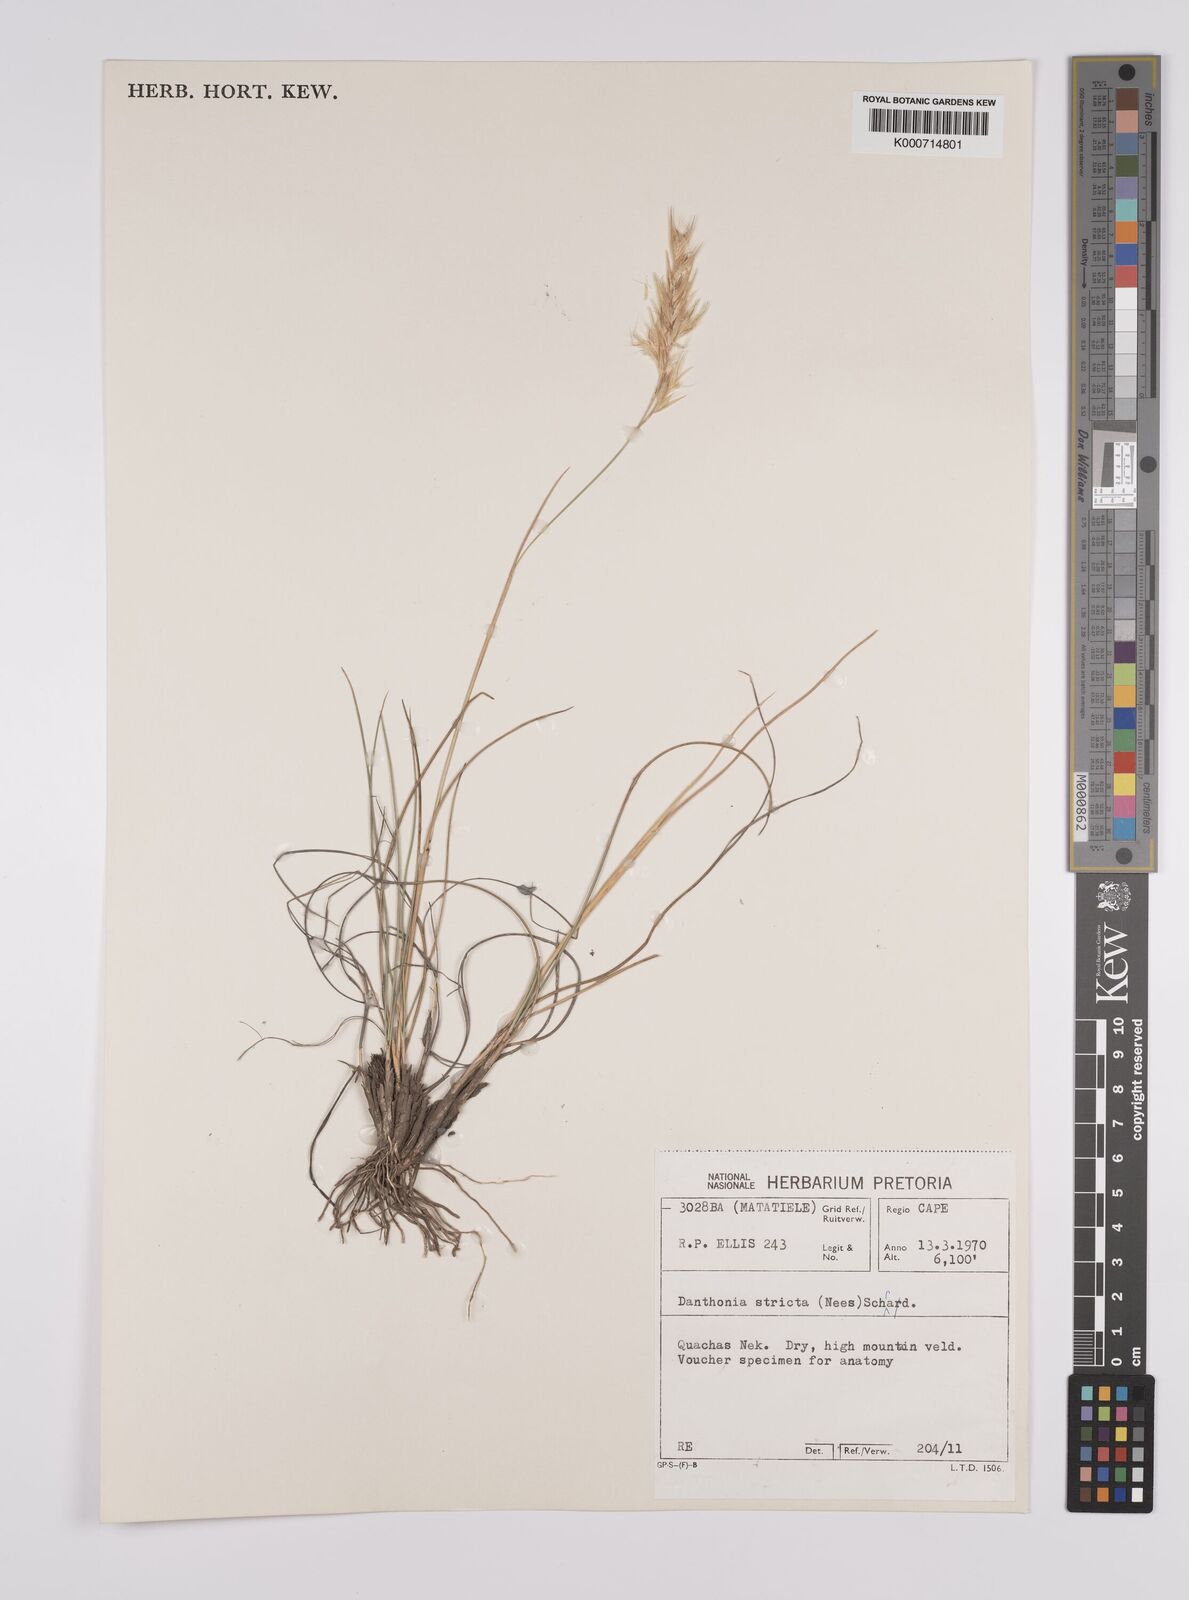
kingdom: Plantae
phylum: Tracheophyta
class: Liliopsida
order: Poales
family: Poaceae
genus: Rytidosperma
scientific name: Rytidosperma
